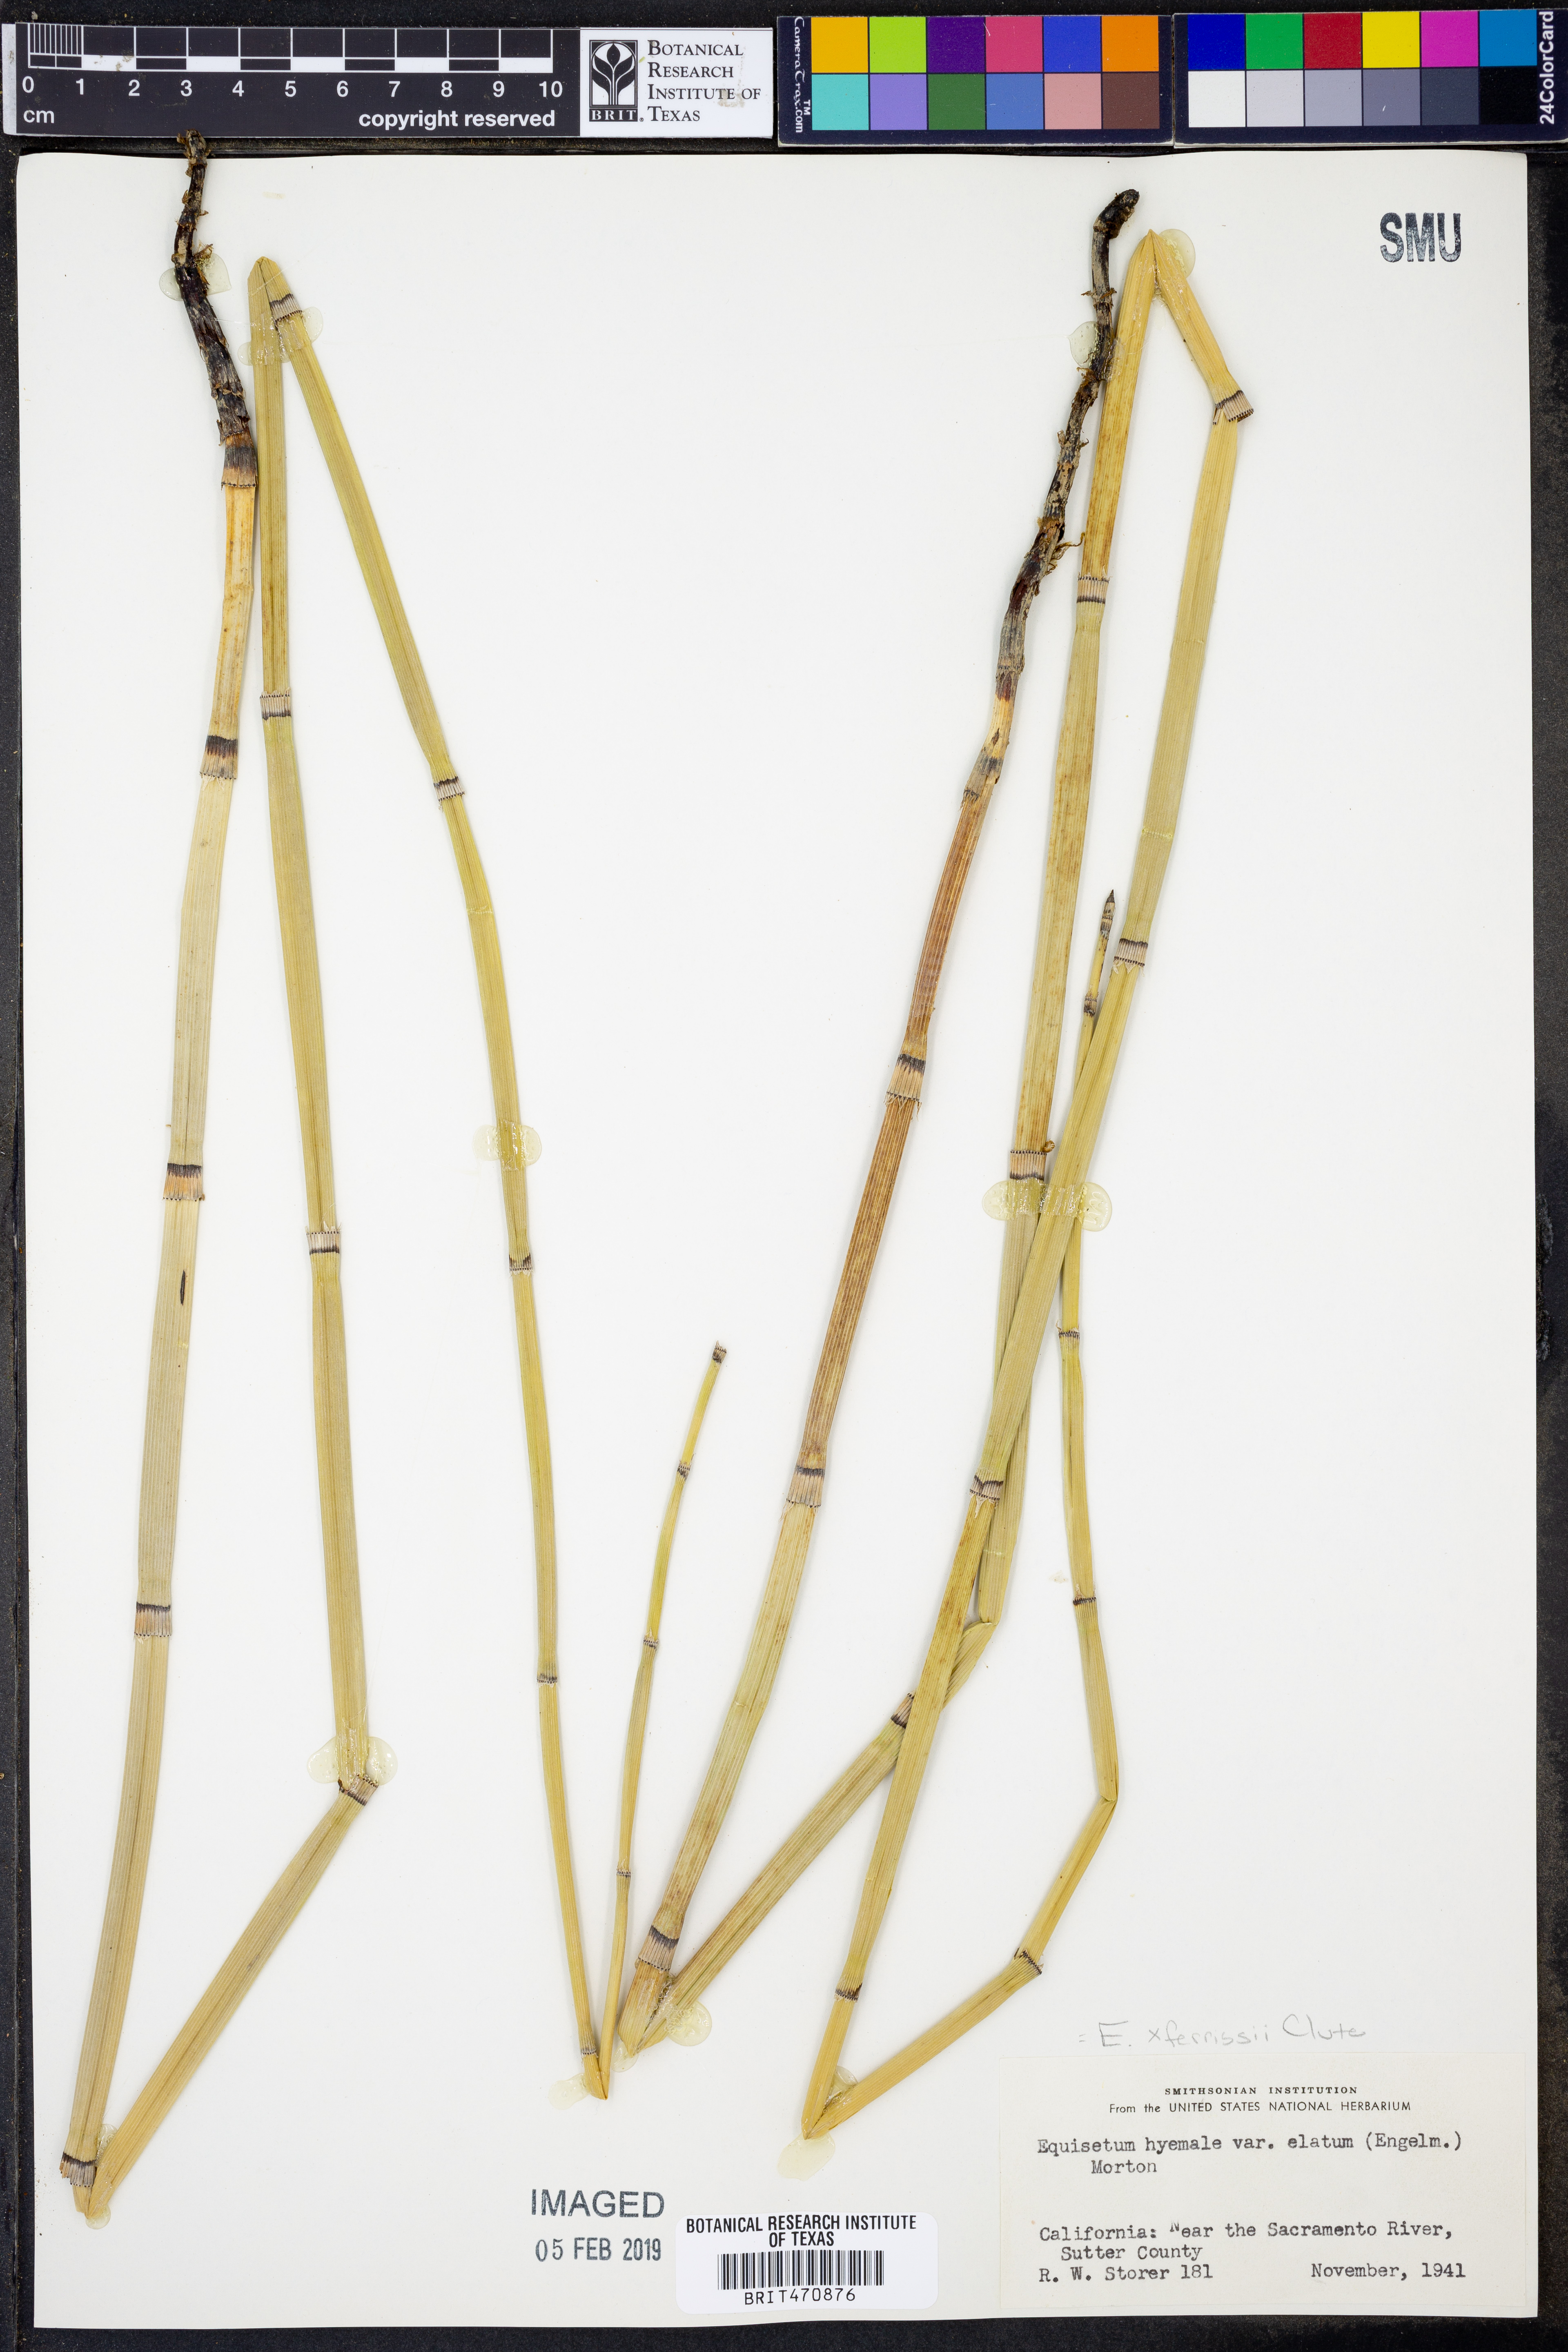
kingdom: Plantae
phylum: Tracheophyta
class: Polypodiopsida
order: Equisetales
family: Equisetaceae
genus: Equisetum
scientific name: Equisetum
